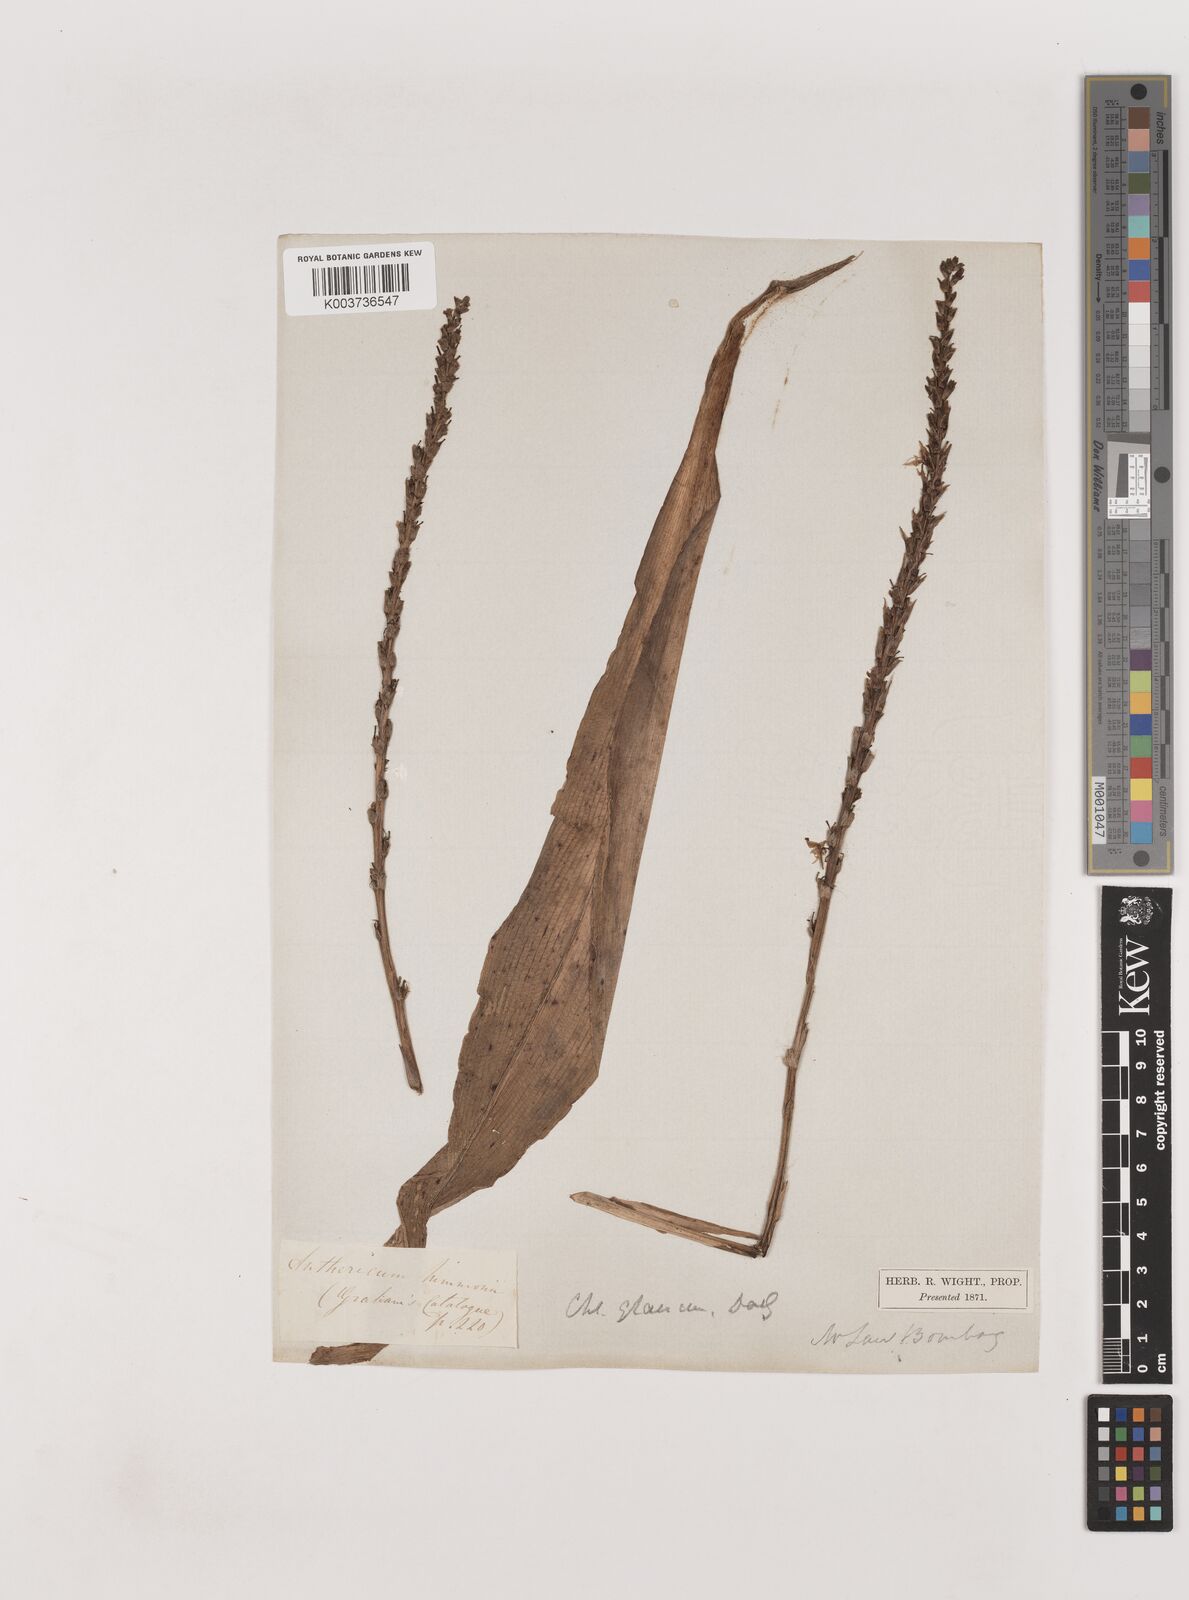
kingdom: Plantae
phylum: Tracheophyta
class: Liliopsida
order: Asparagales
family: Asparagaceae
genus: Chlorophytum
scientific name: Chlorophytum glaucum
